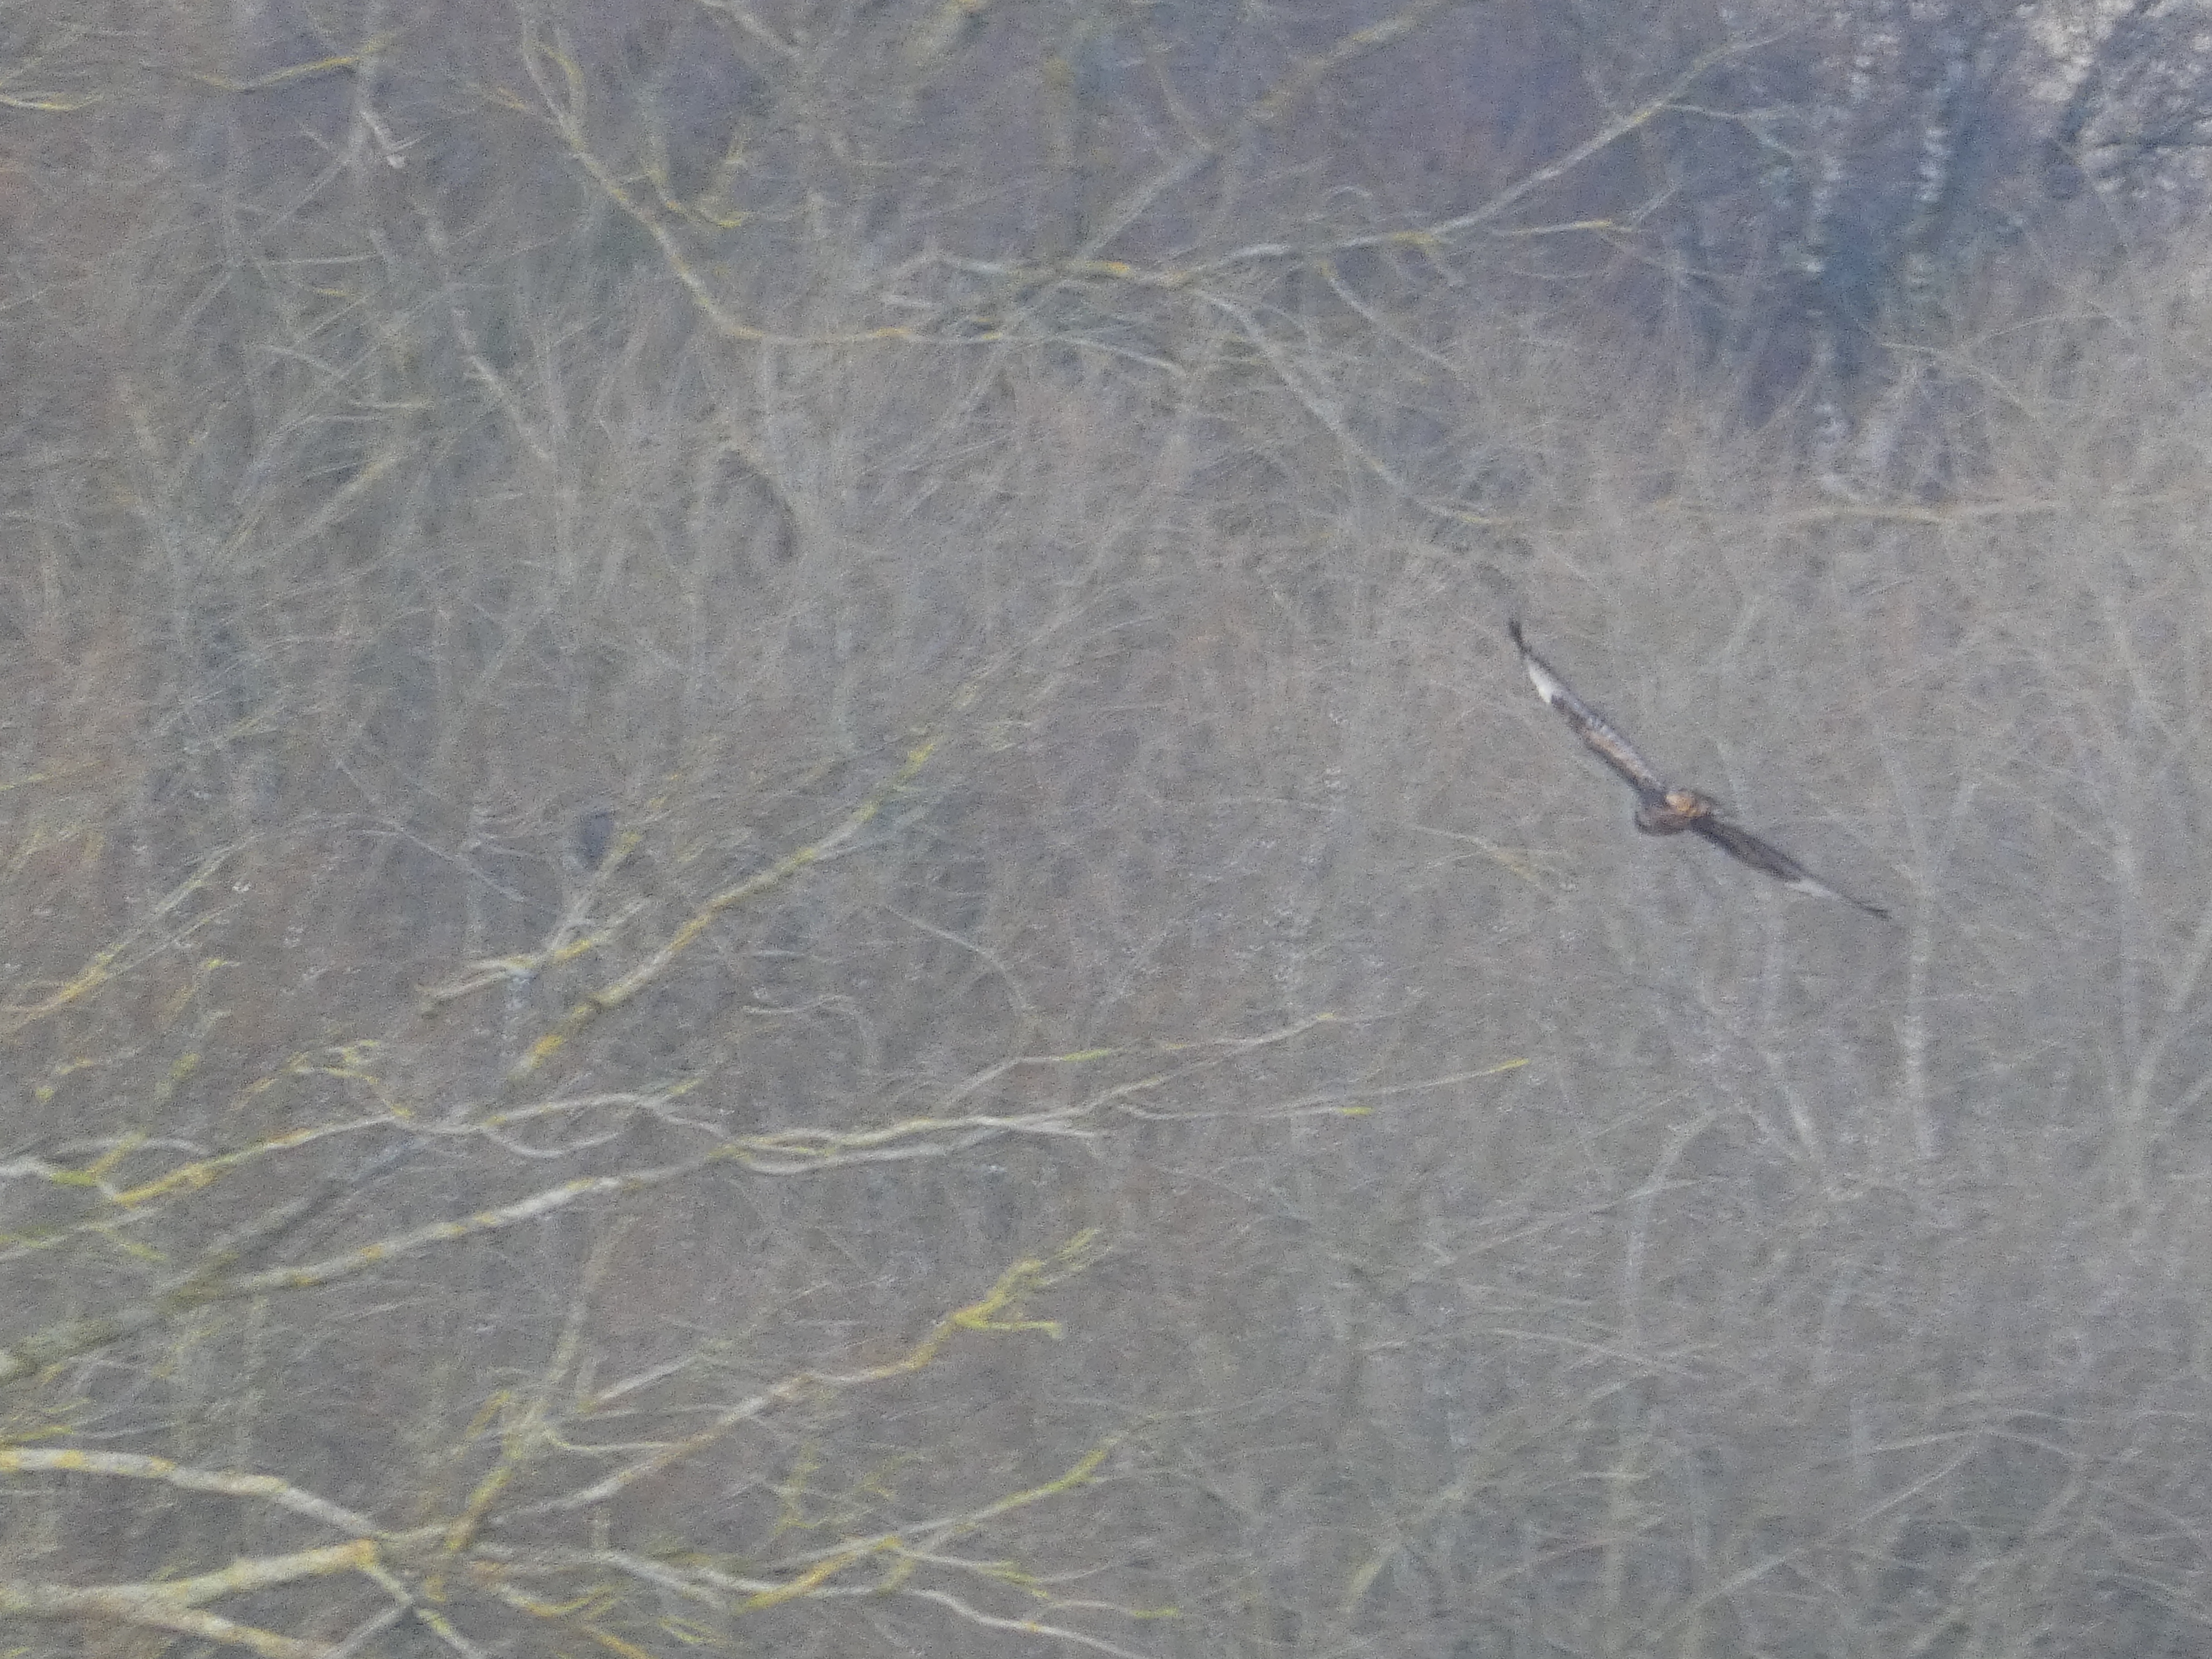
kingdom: Animalia
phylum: Chordata
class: Aves
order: Accipitriformes
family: Accipitridae
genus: Buteo
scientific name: Buteo buteo
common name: Musvåge
